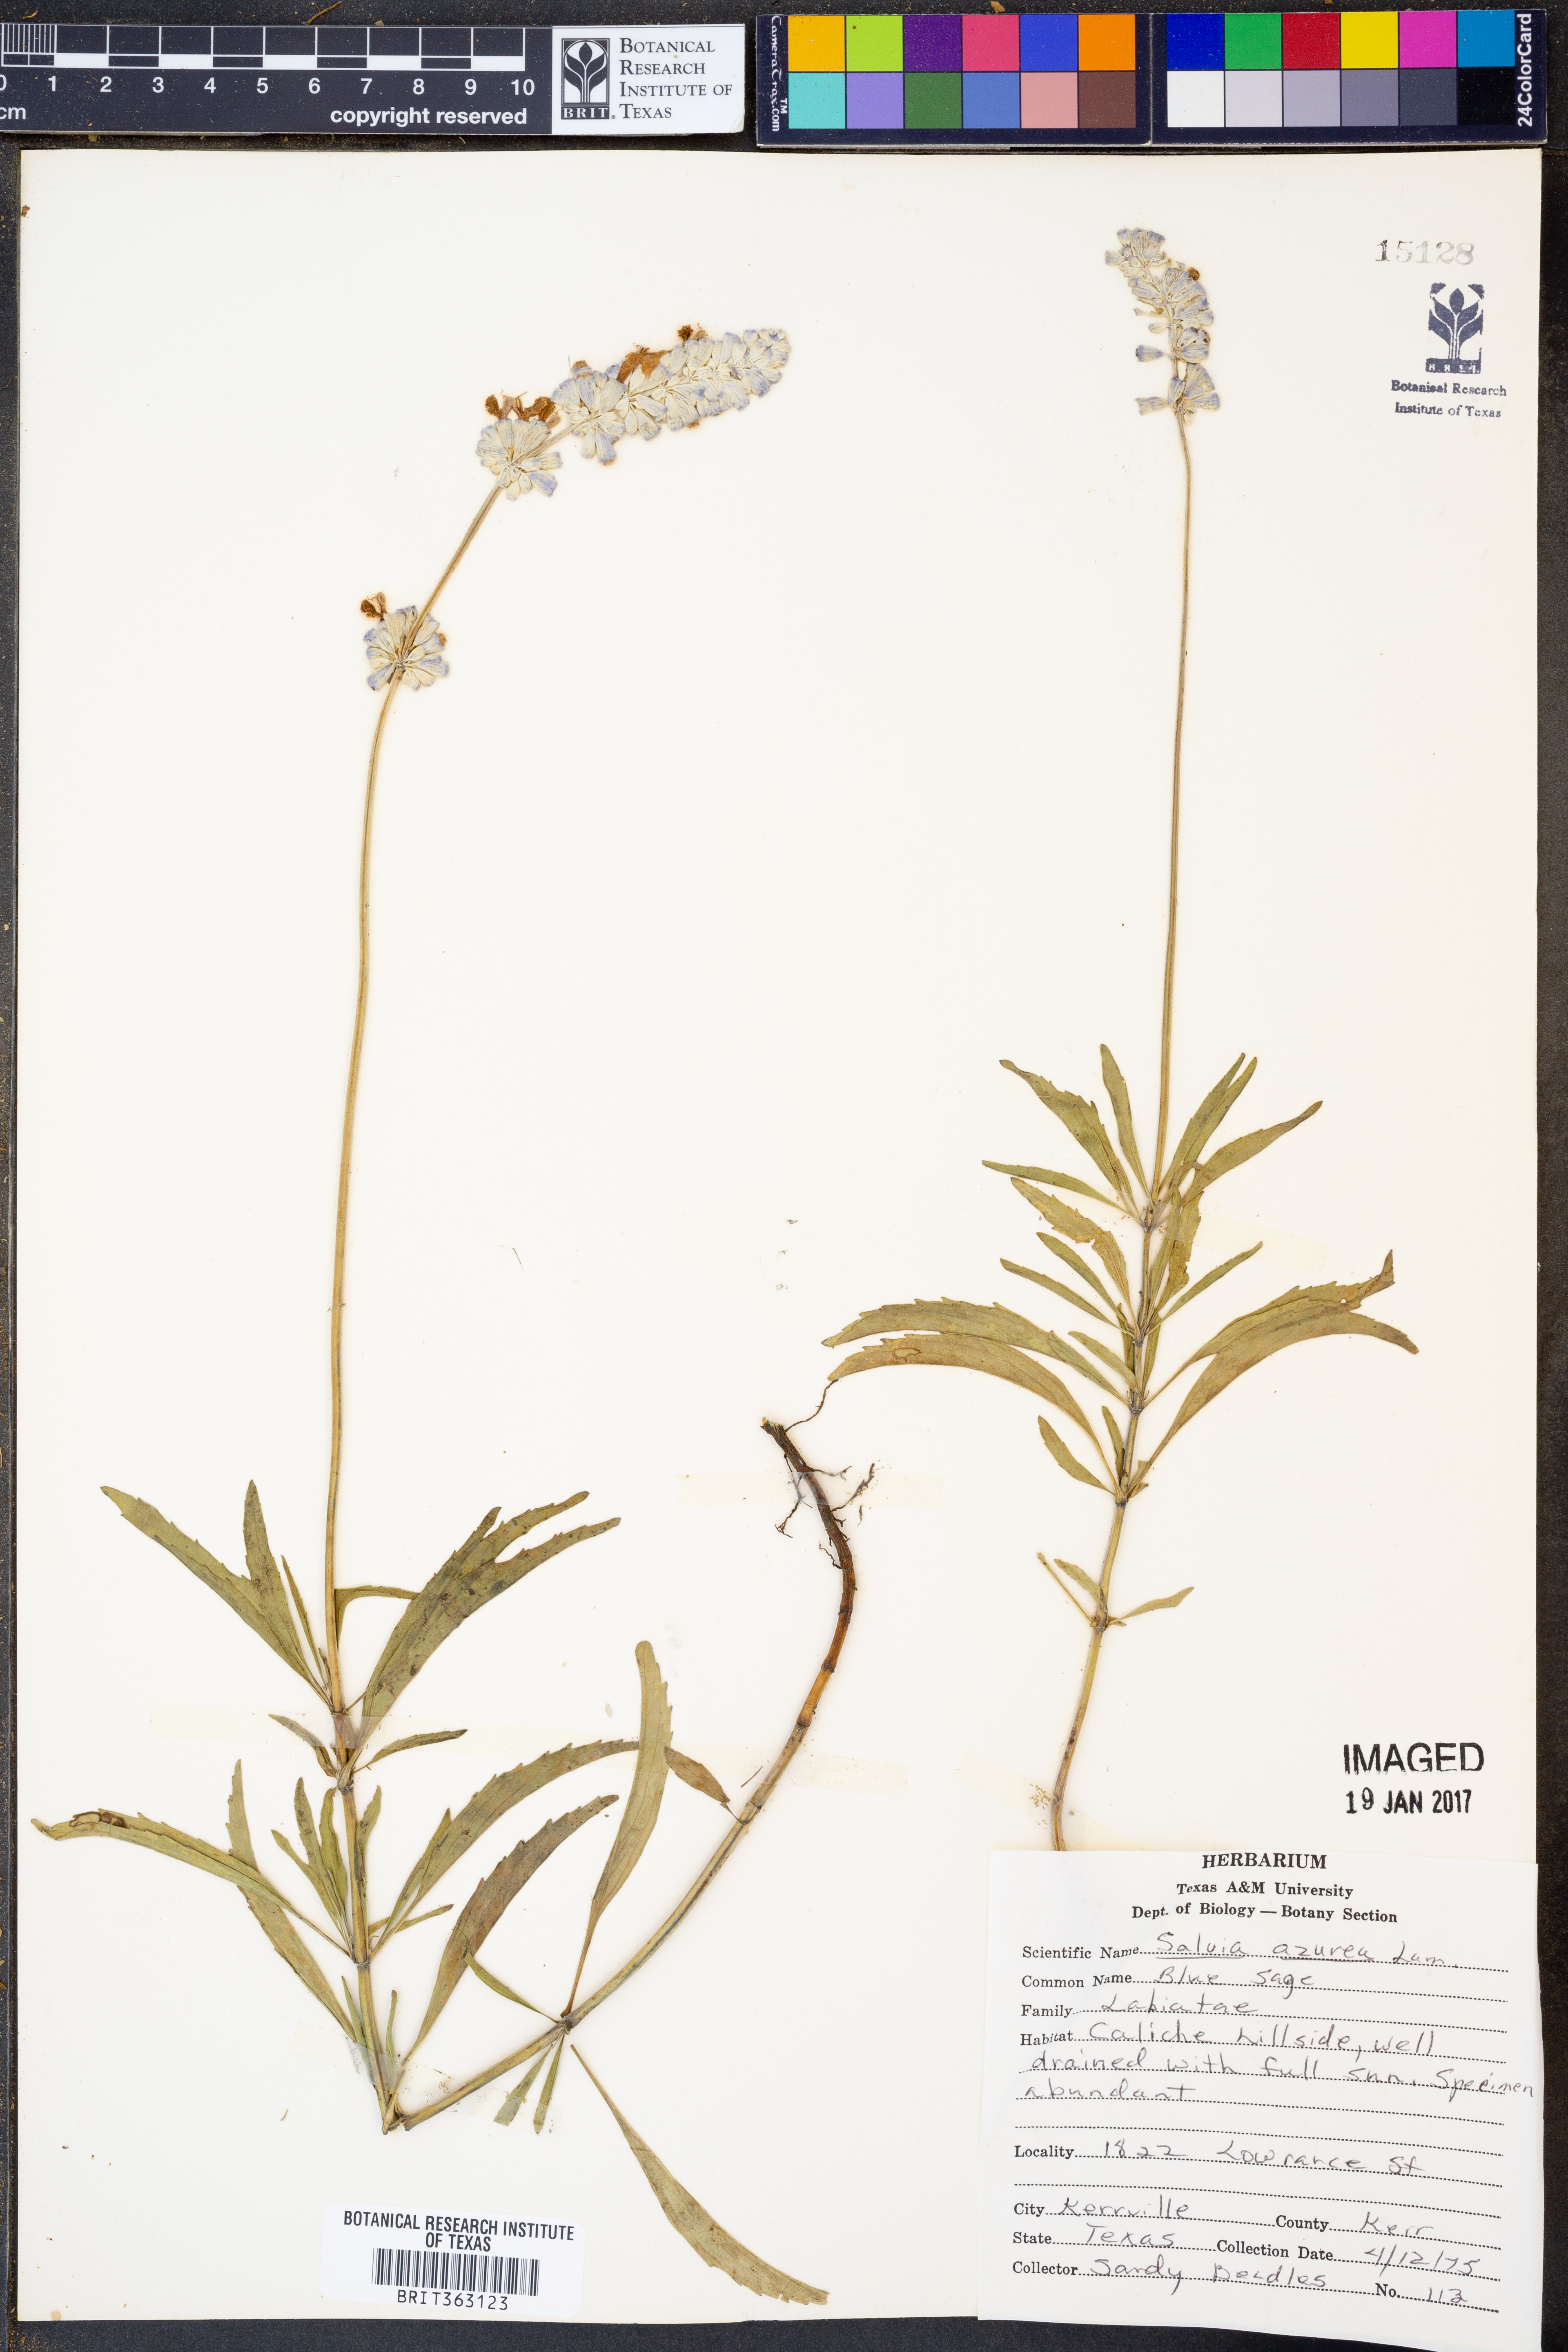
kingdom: Plantae
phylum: Tracheophyta
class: Magnoliopsida
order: Lamiales
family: Lamiaceae
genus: Salvia
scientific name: Salvia azurea
